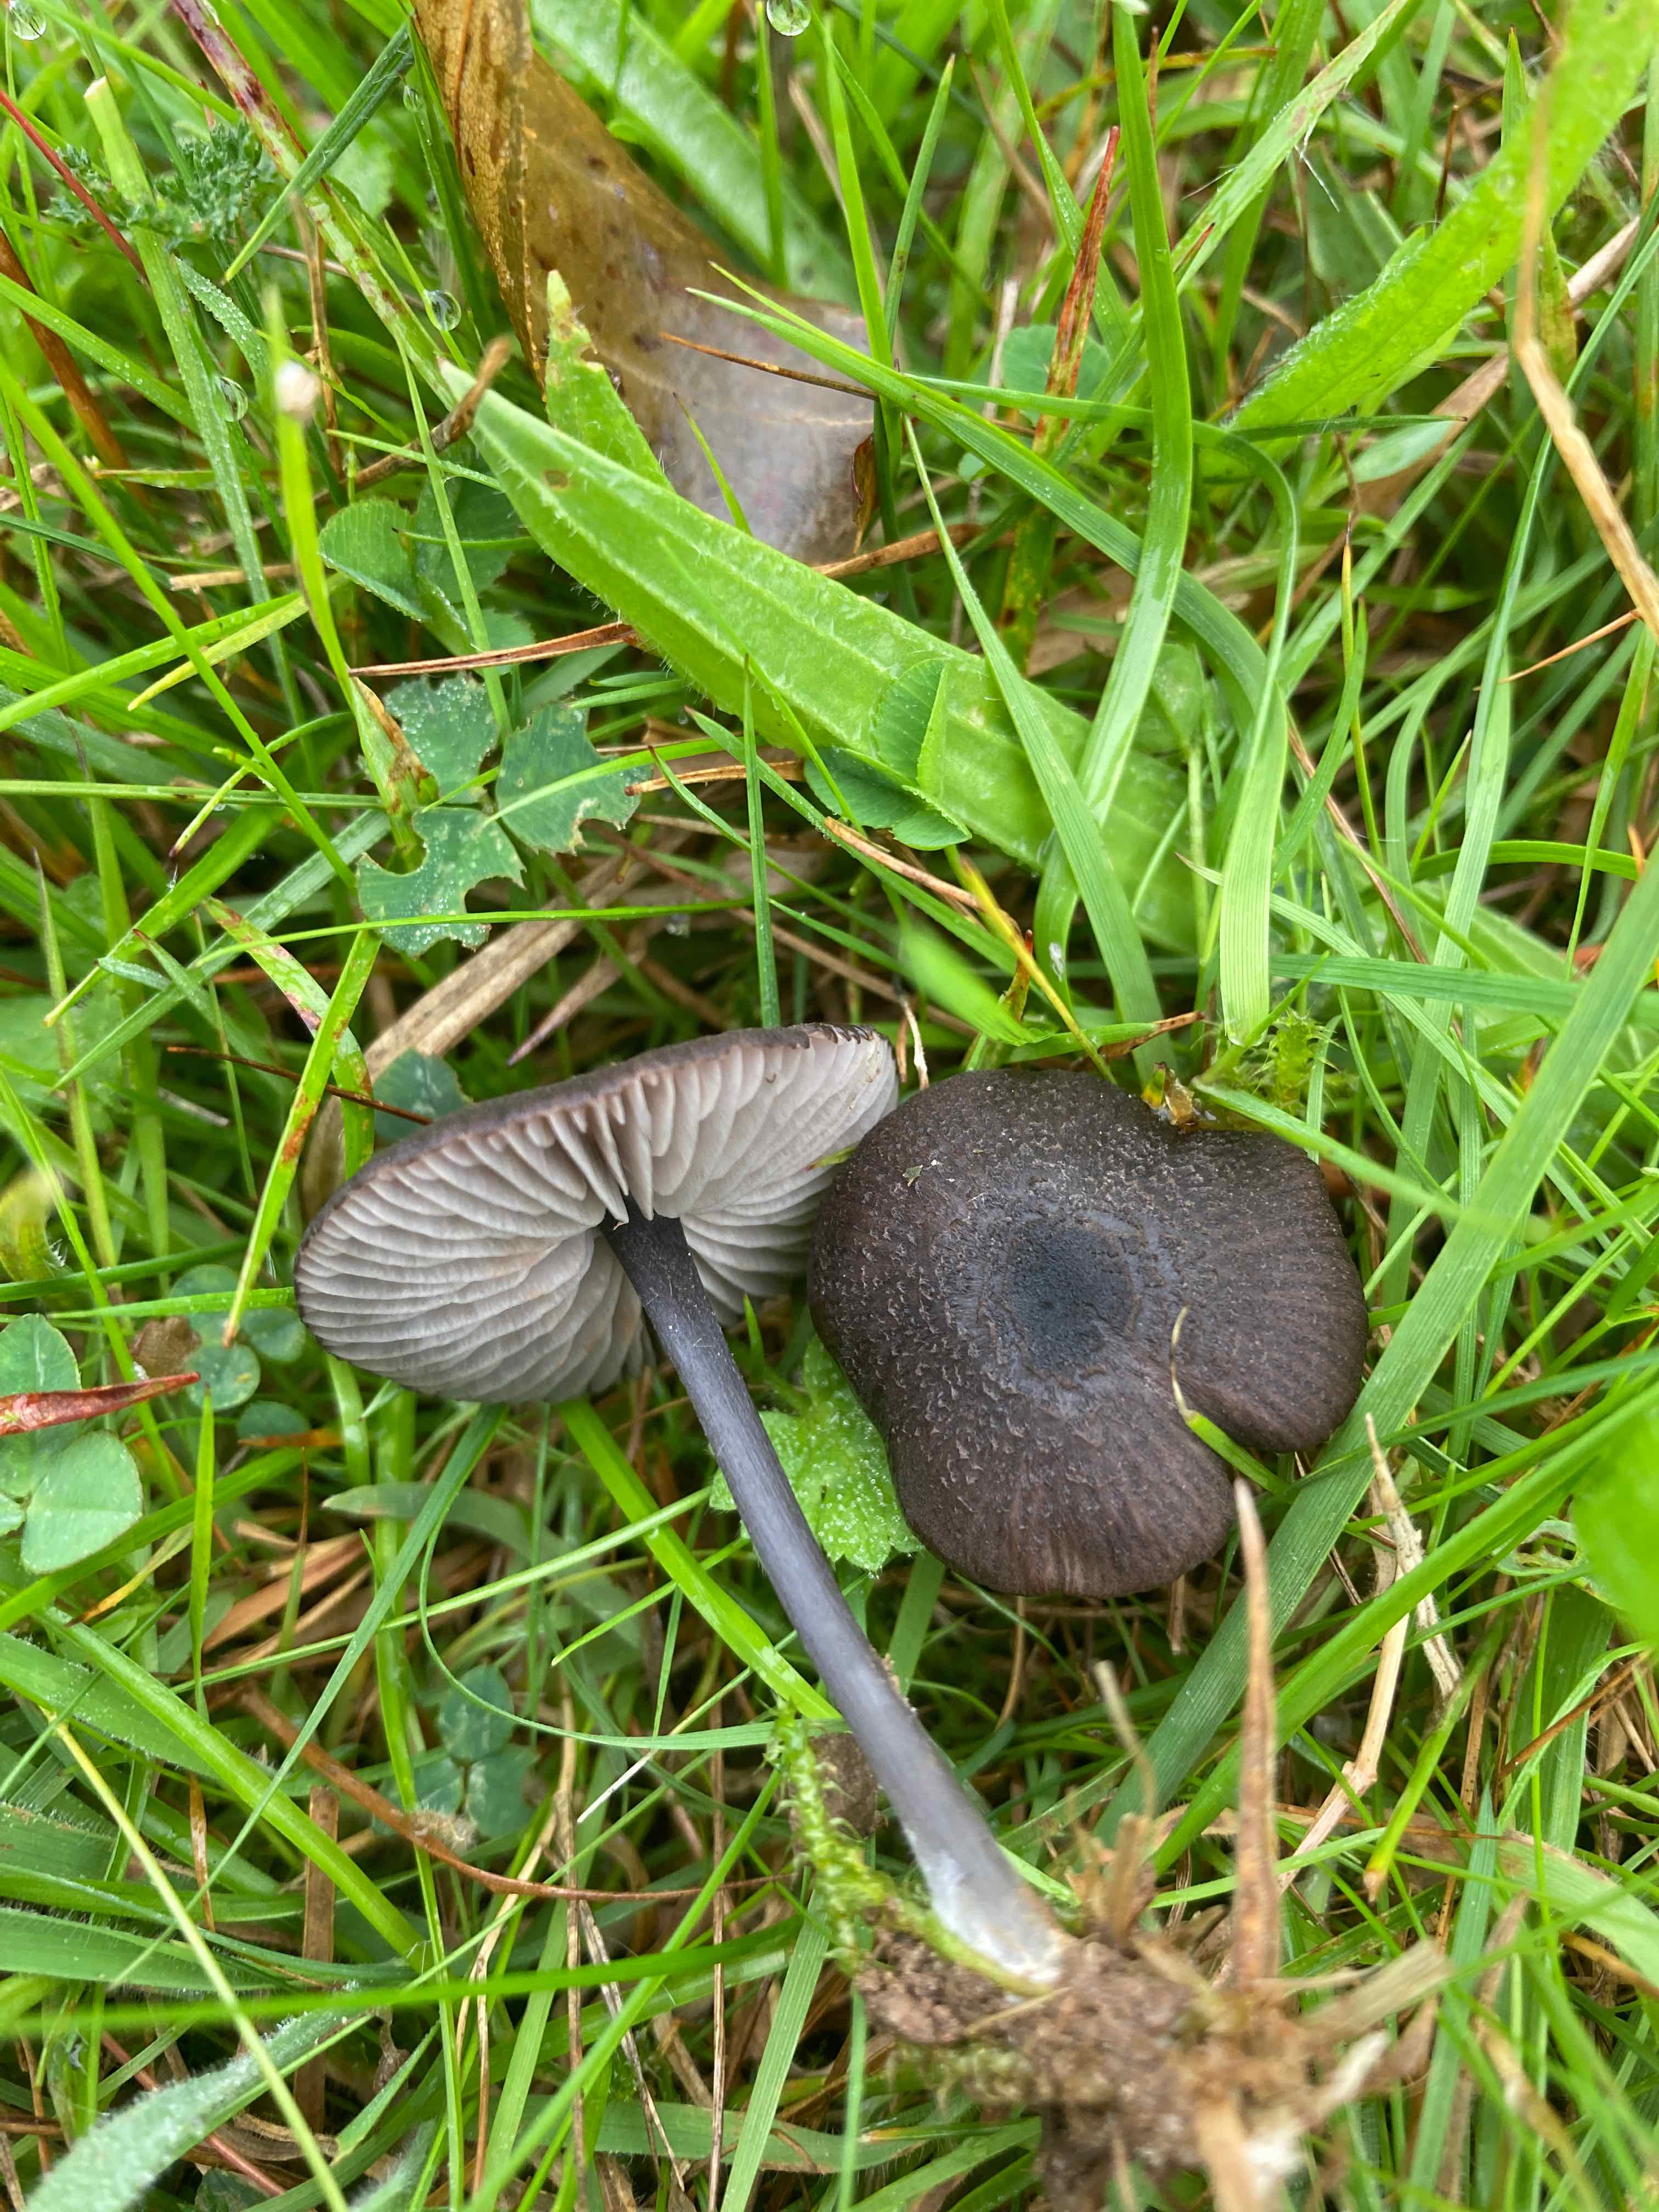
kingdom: Fungi
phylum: Basidiomycota
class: Agaricomycetes
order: Agaricales
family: Entolomataceae
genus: Entoloma
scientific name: Entoloma
